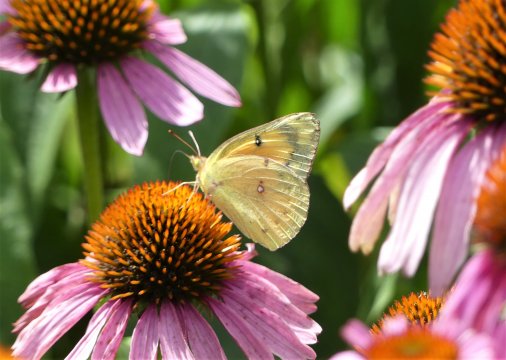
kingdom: Animalia
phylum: Arthropoda
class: Insecta
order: Lepidoptera
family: Pieridae
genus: Colias
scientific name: Colias eurytheme
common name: Orange Sulphur
